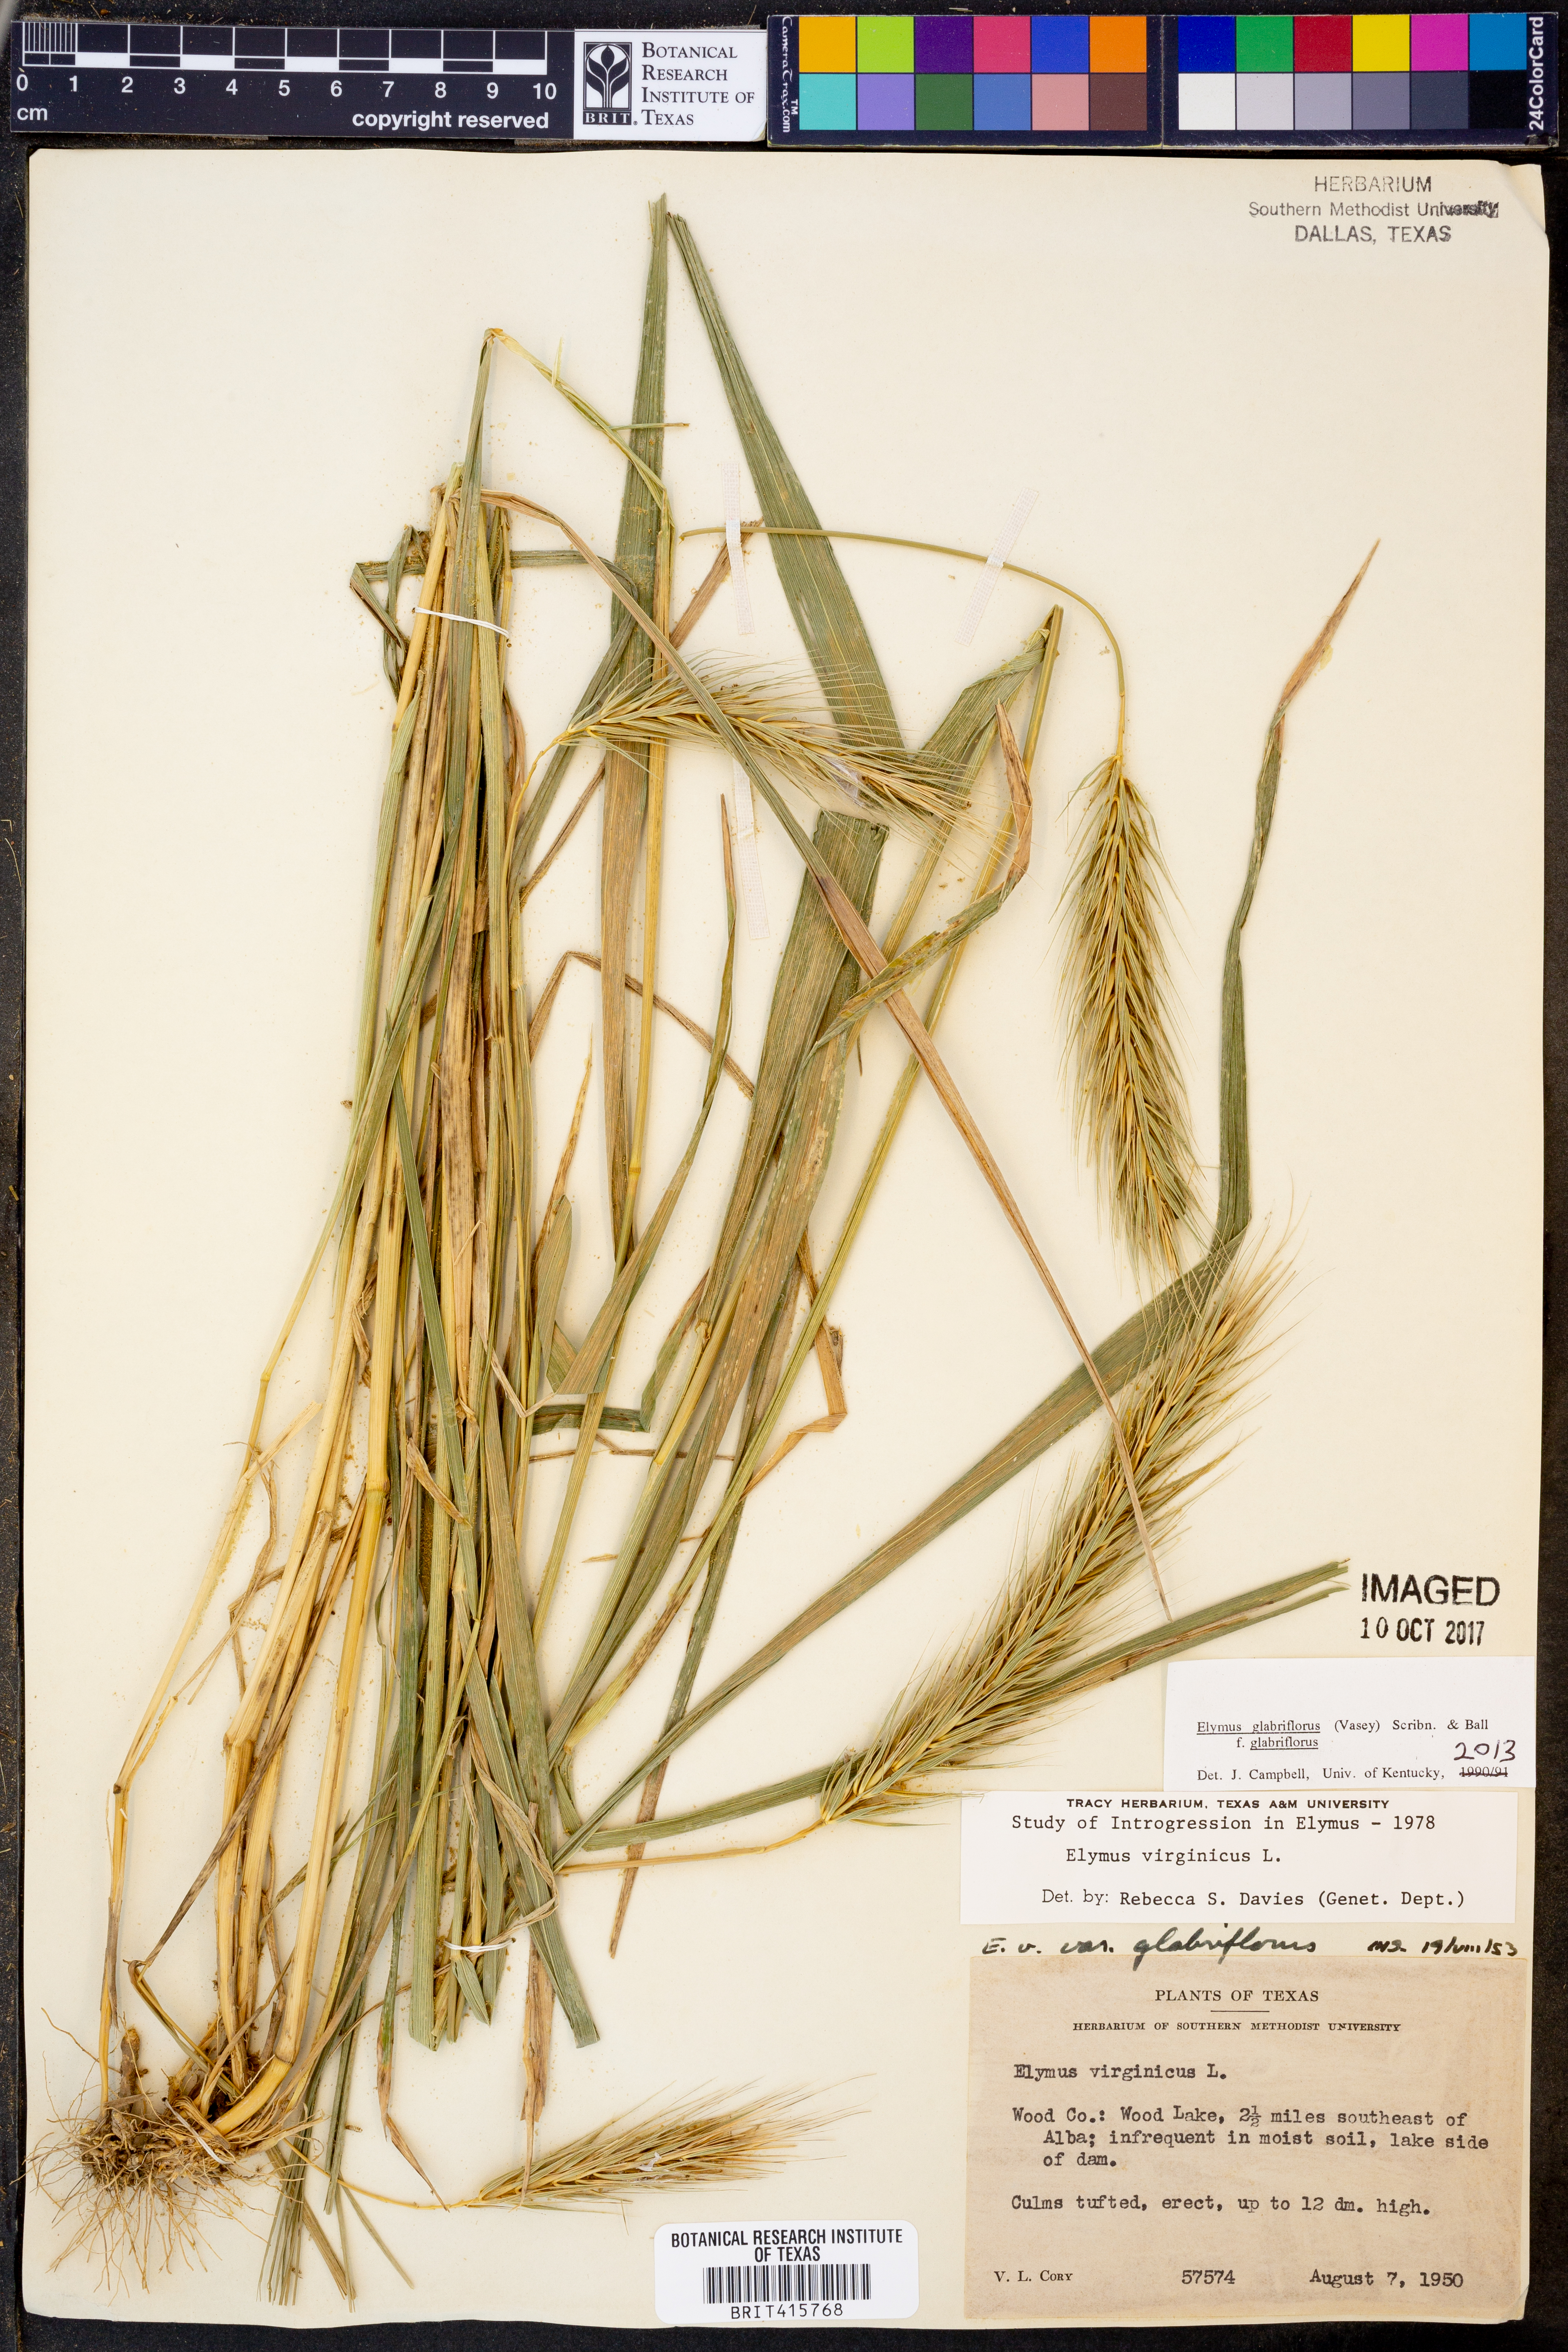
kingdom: Plantae
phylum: Tracheophyta
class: Liliopsida
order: Poales
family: Poaceae
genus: Elymus
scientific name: Elymus virginicus
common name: Common eastern wildrye
